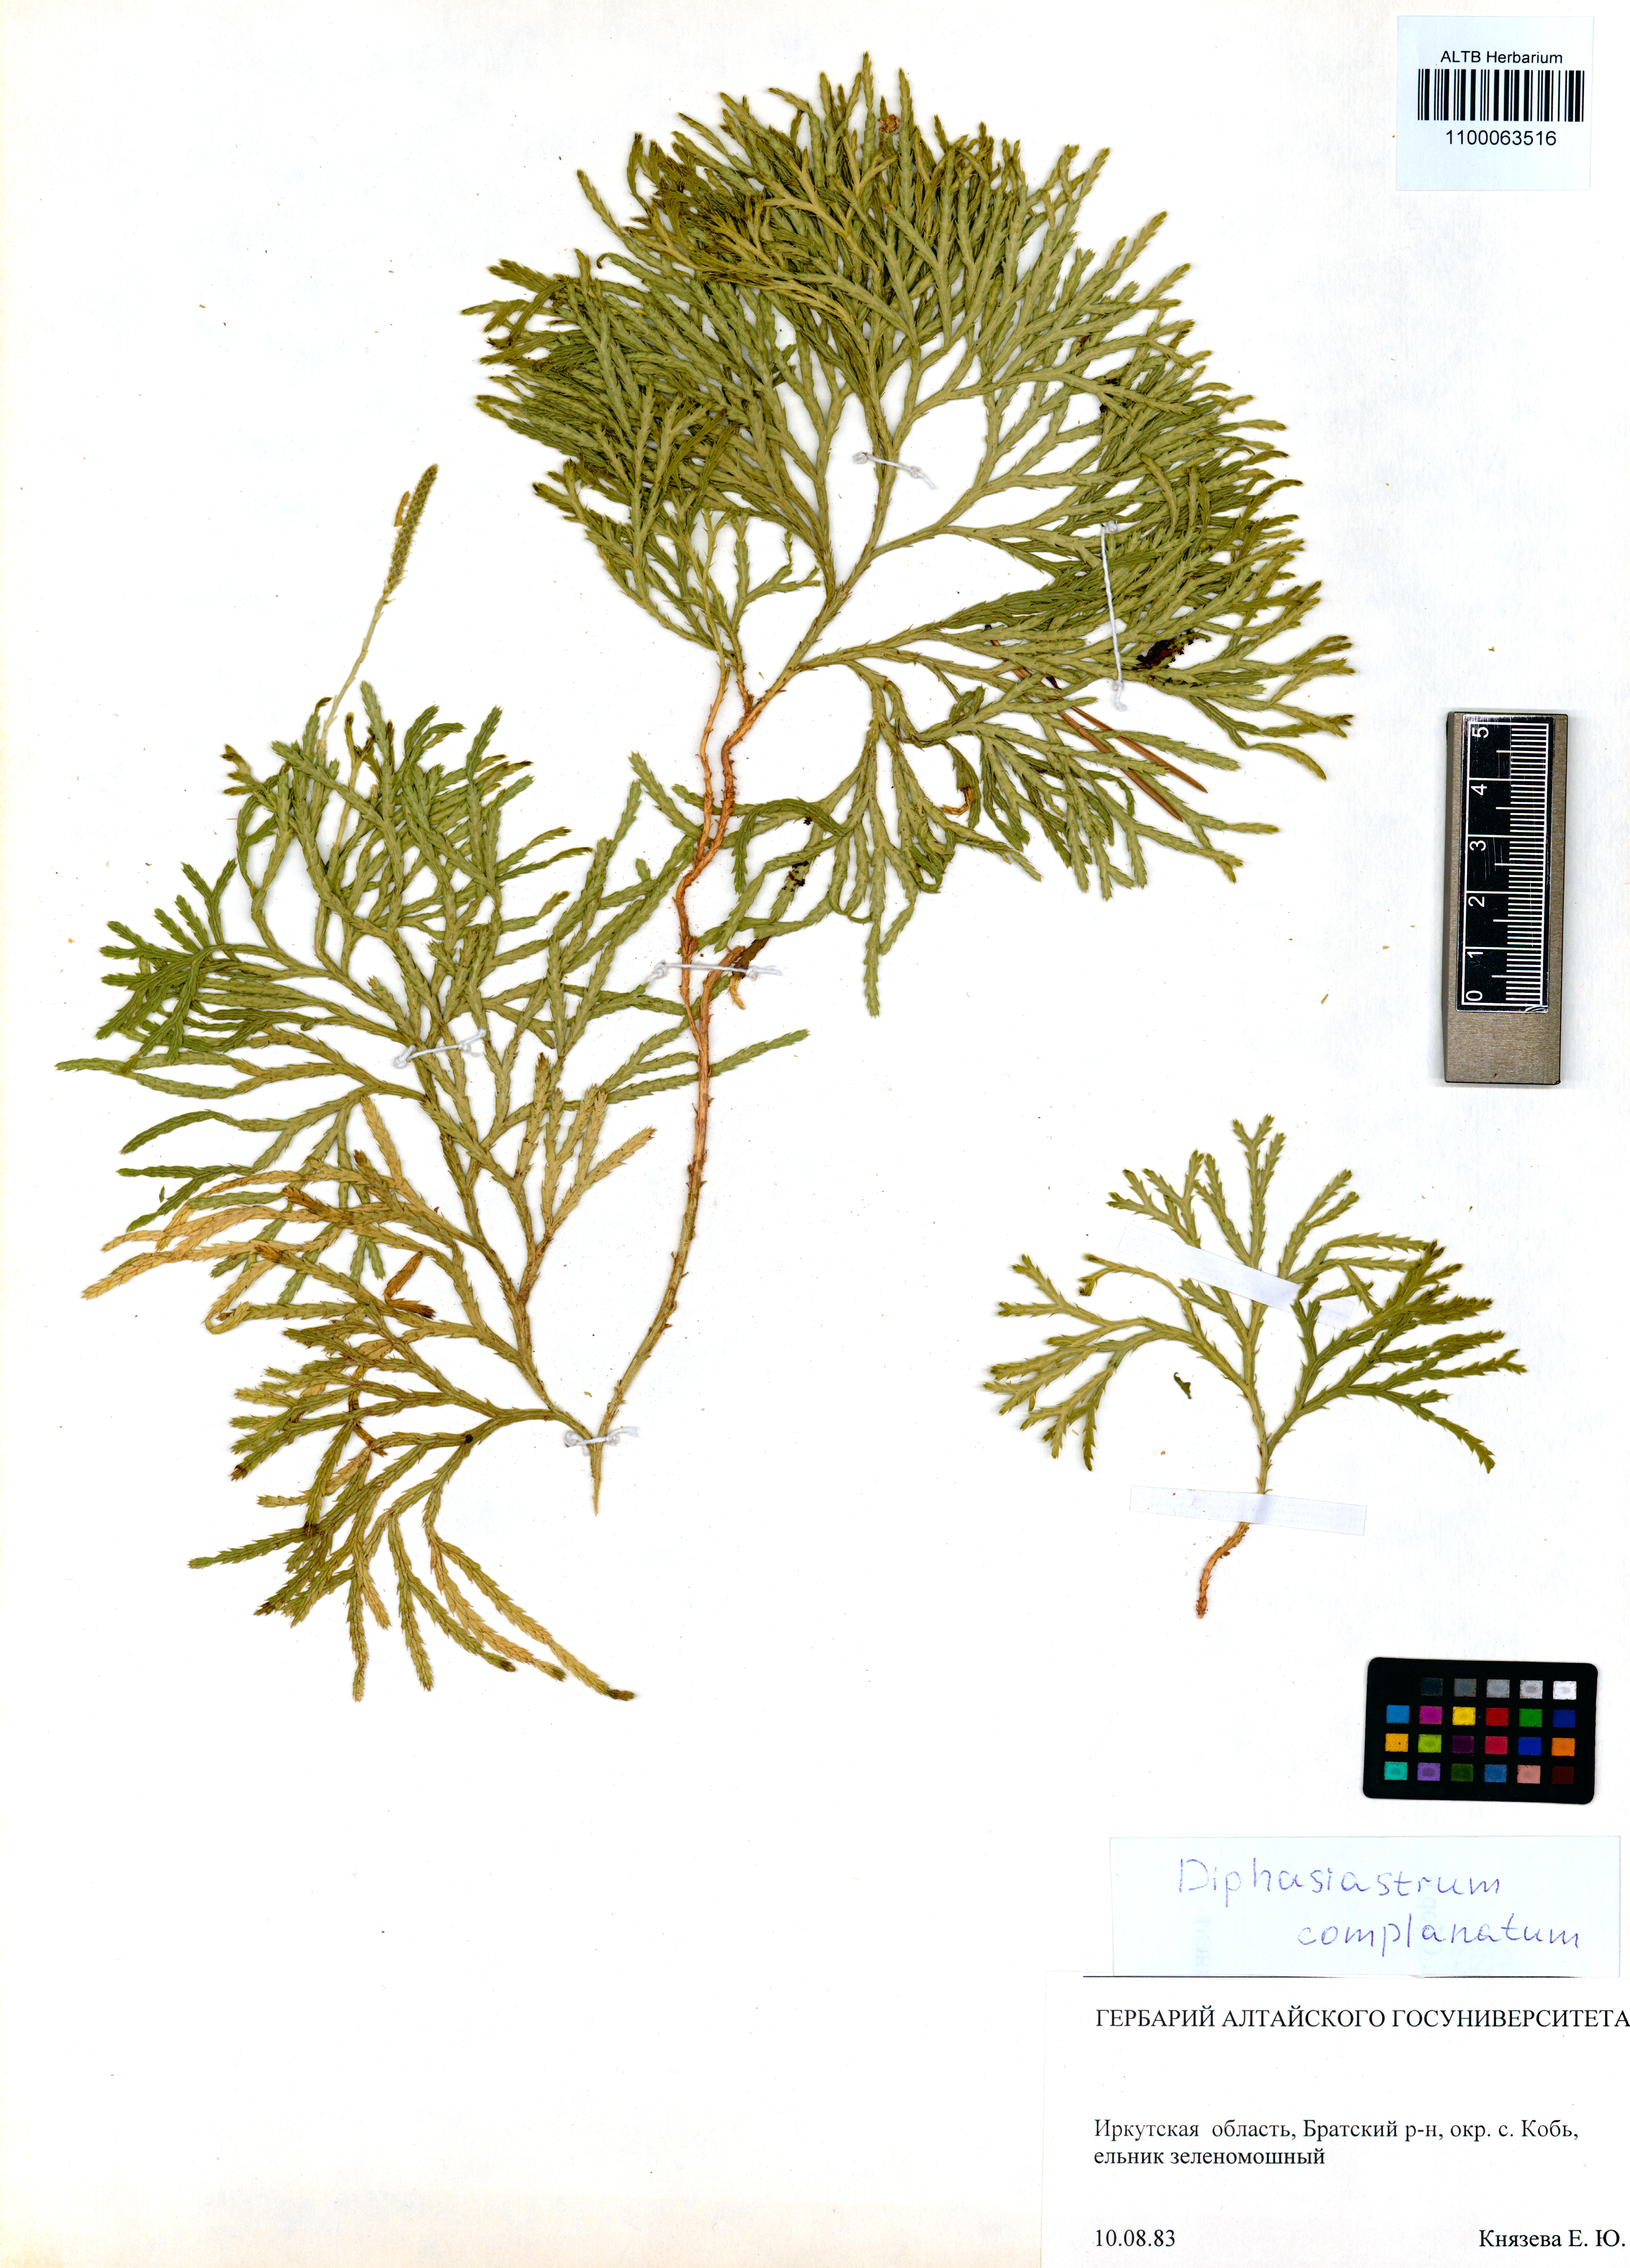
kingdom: Plantae
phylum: Tracheophyta
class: Lycopodiopsida
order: Lycopodiales
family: Lycopodiaceae
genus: Diphasiastrum
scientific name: Diphasiastrum complanatum
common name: Northern running-pine
